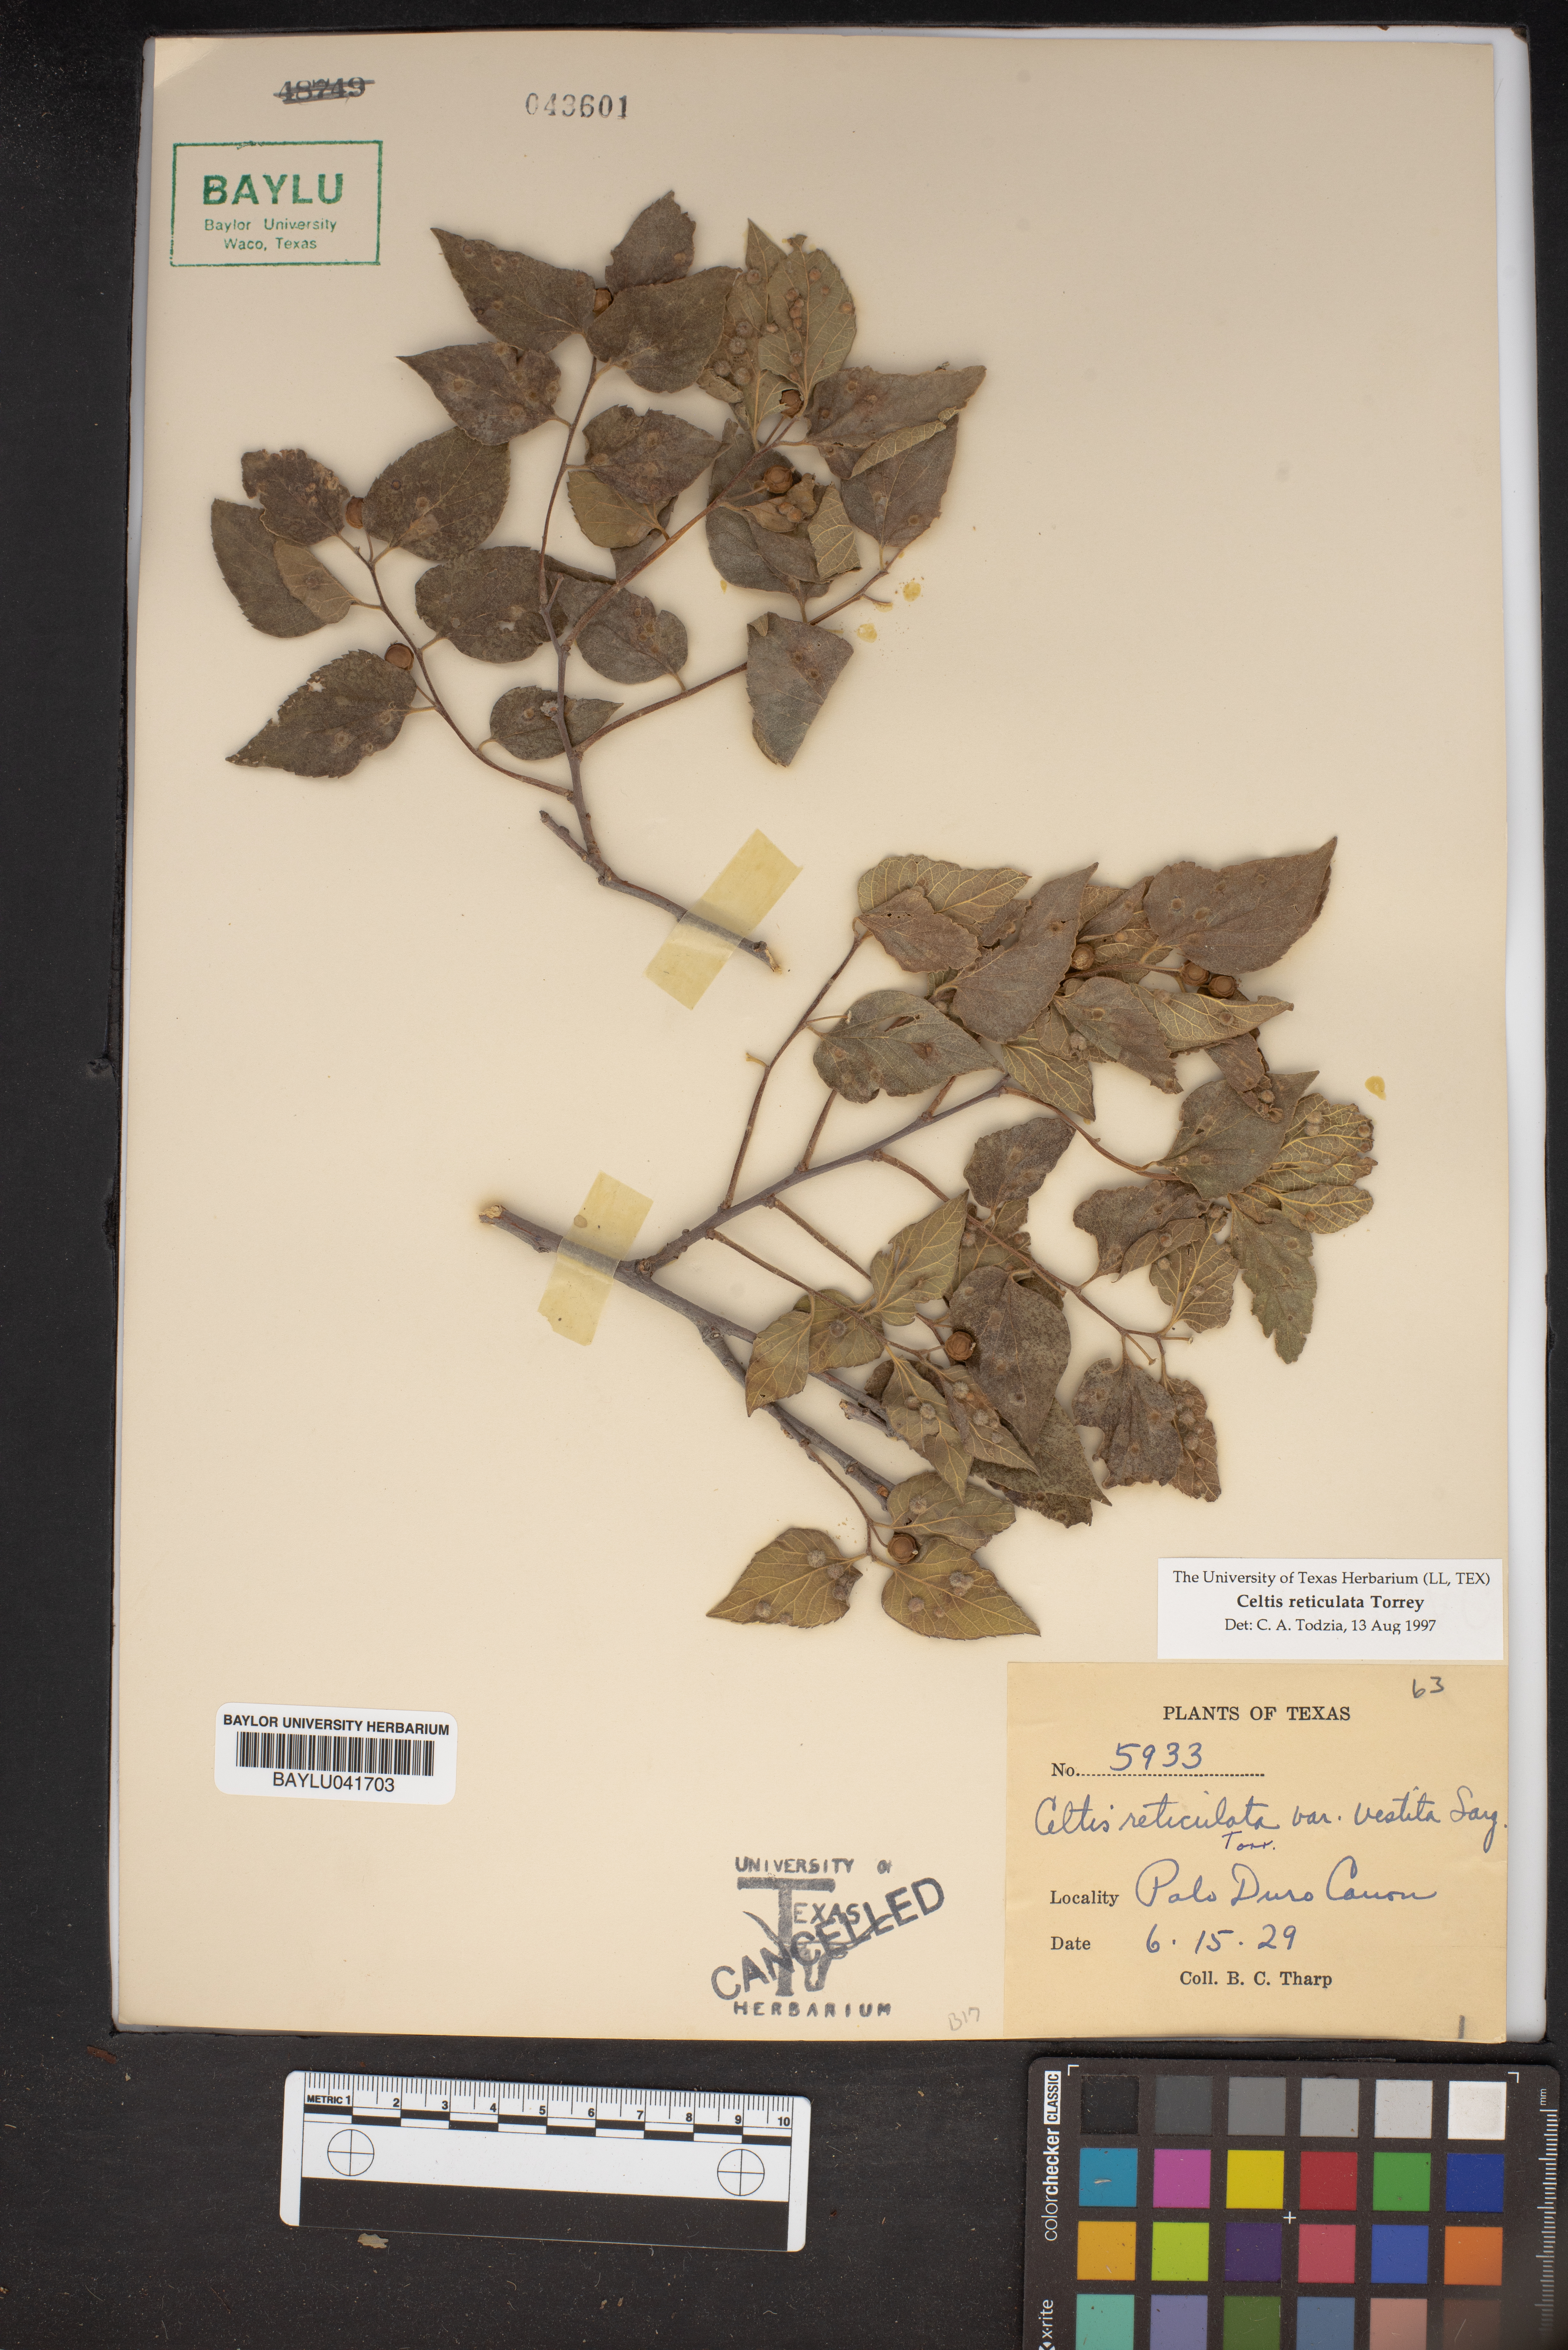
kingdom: Plantae
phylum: Tracheophyta
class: Magnoliopsida
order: Rosales
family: Cannabaceae
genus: Celtis
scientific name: Celtis reticulata
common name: Netleaf hackberry
